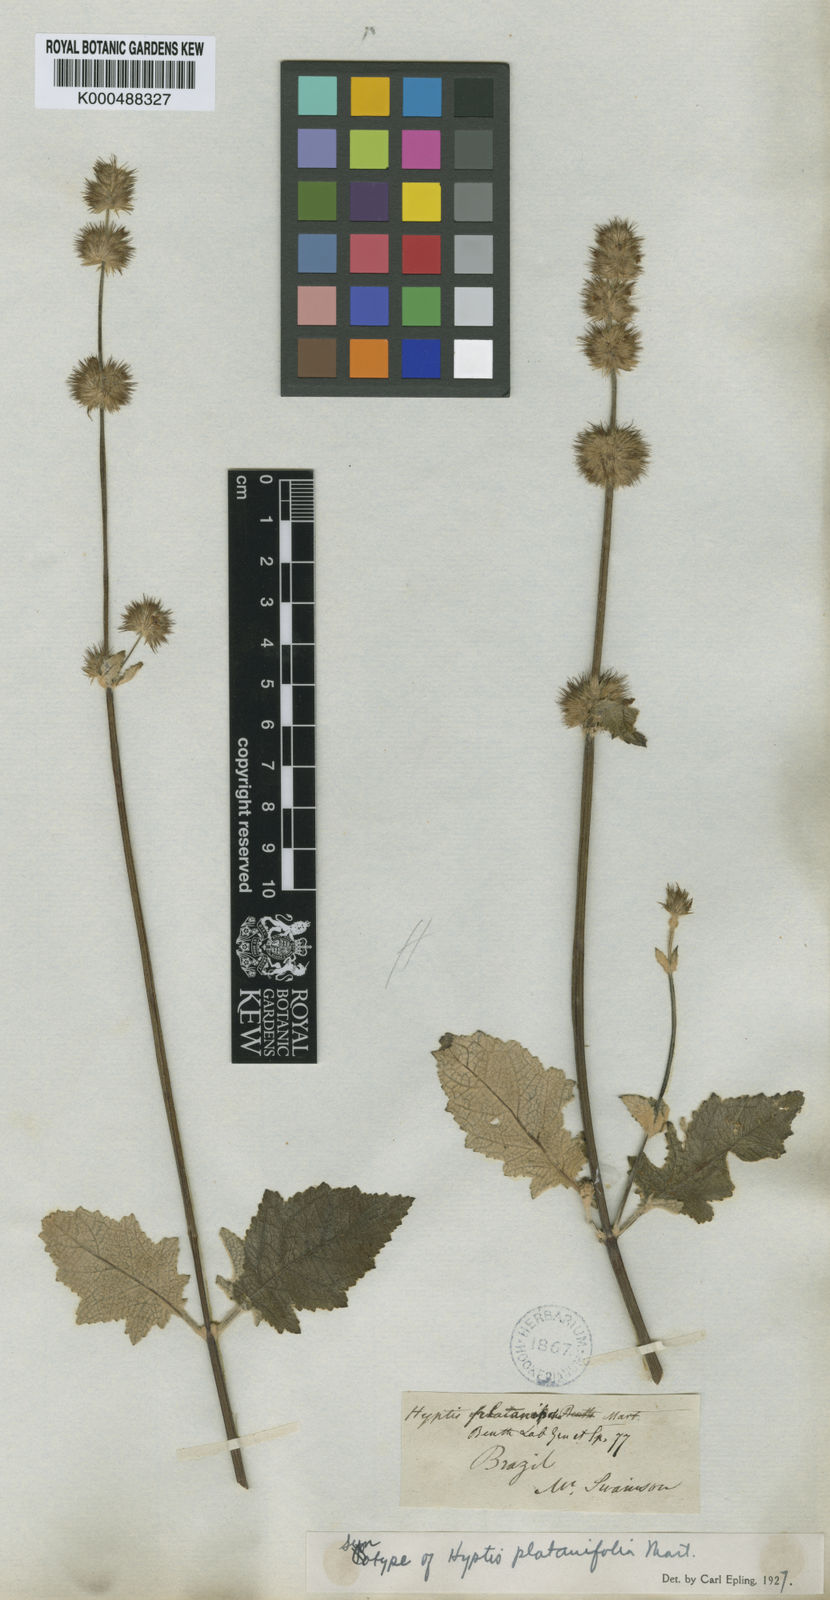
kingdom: Plantae
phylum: Tracheophyta
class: Magnoliopsida
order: Lamiales
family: Lamiaceae
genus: Gymneia
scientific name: Gymneia platanifolia
